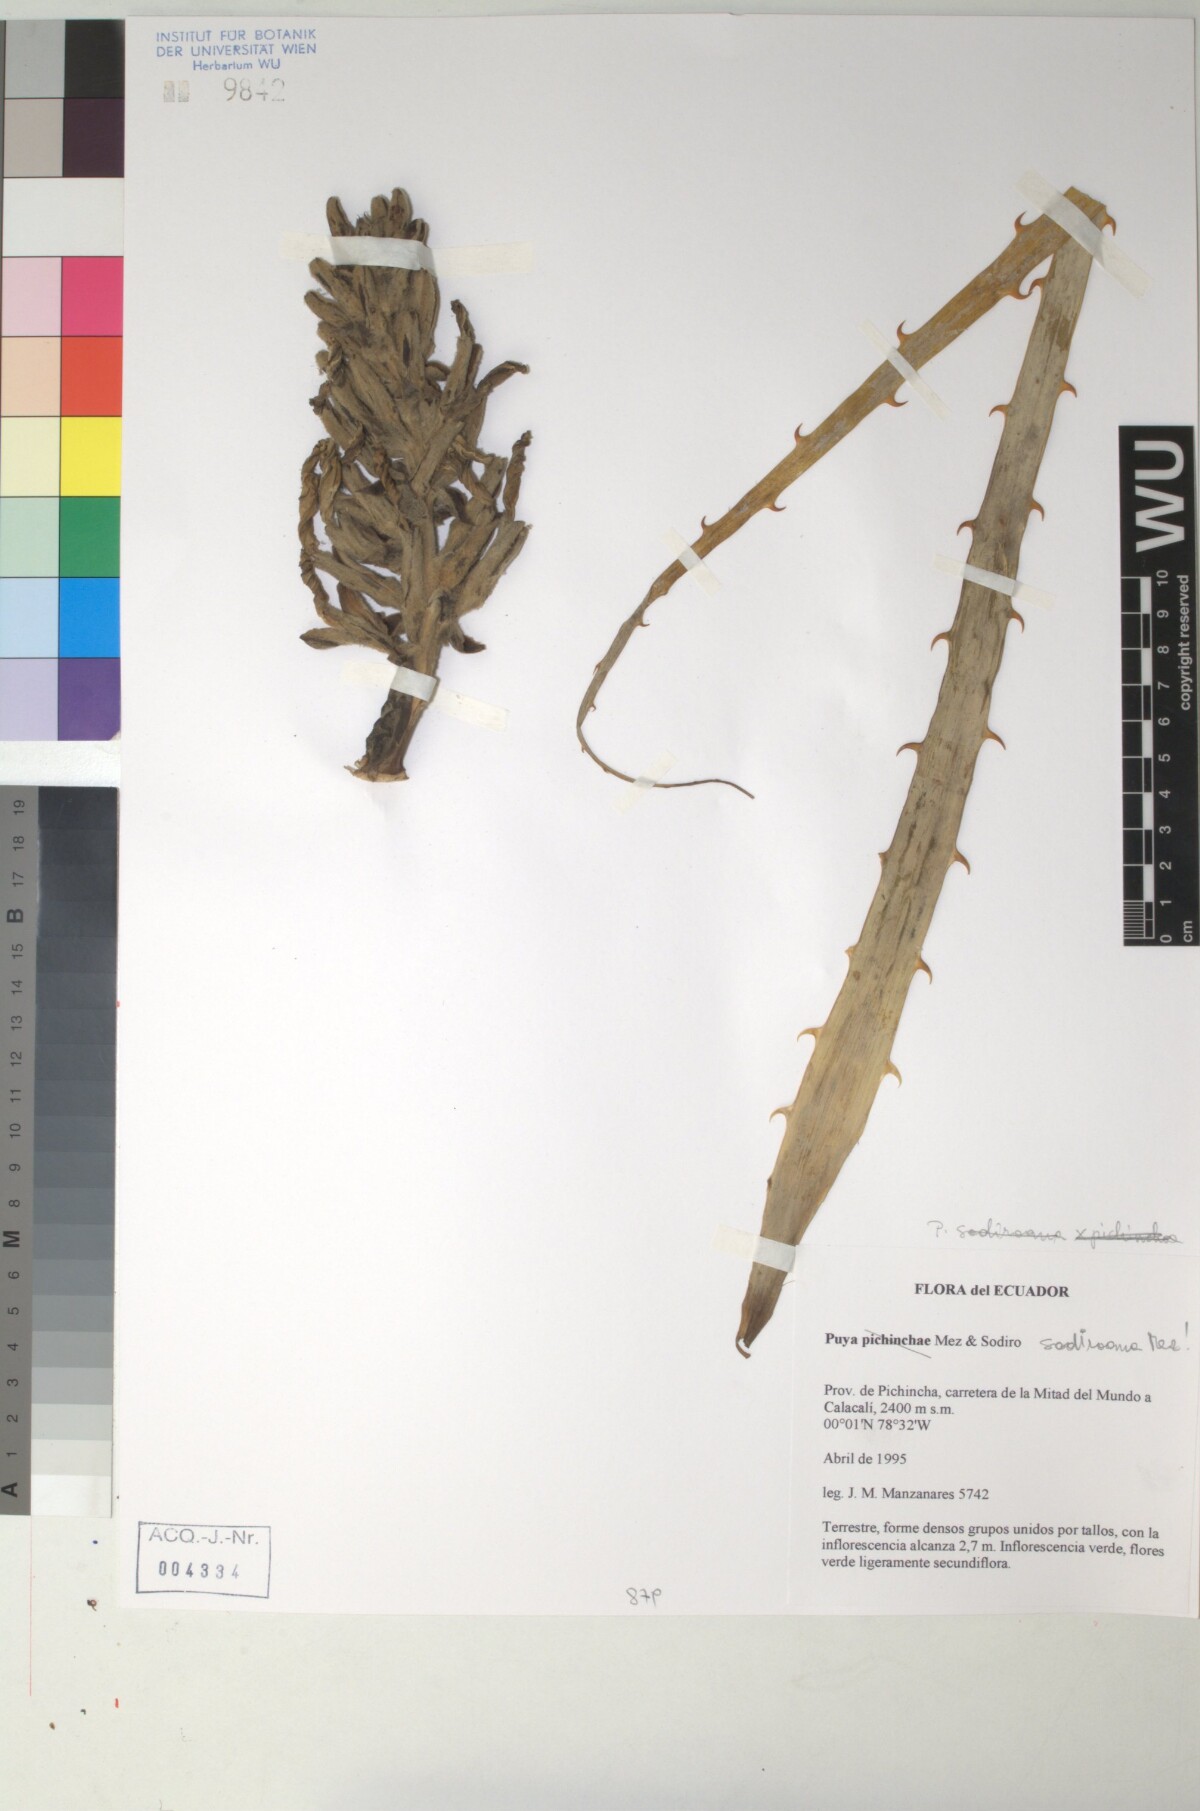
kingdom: Plantae
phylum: Tracheophyta
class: Liliopsida
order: Poales
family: Bromeliaceae
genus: Pitcairnia
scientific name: Pitcairnia
